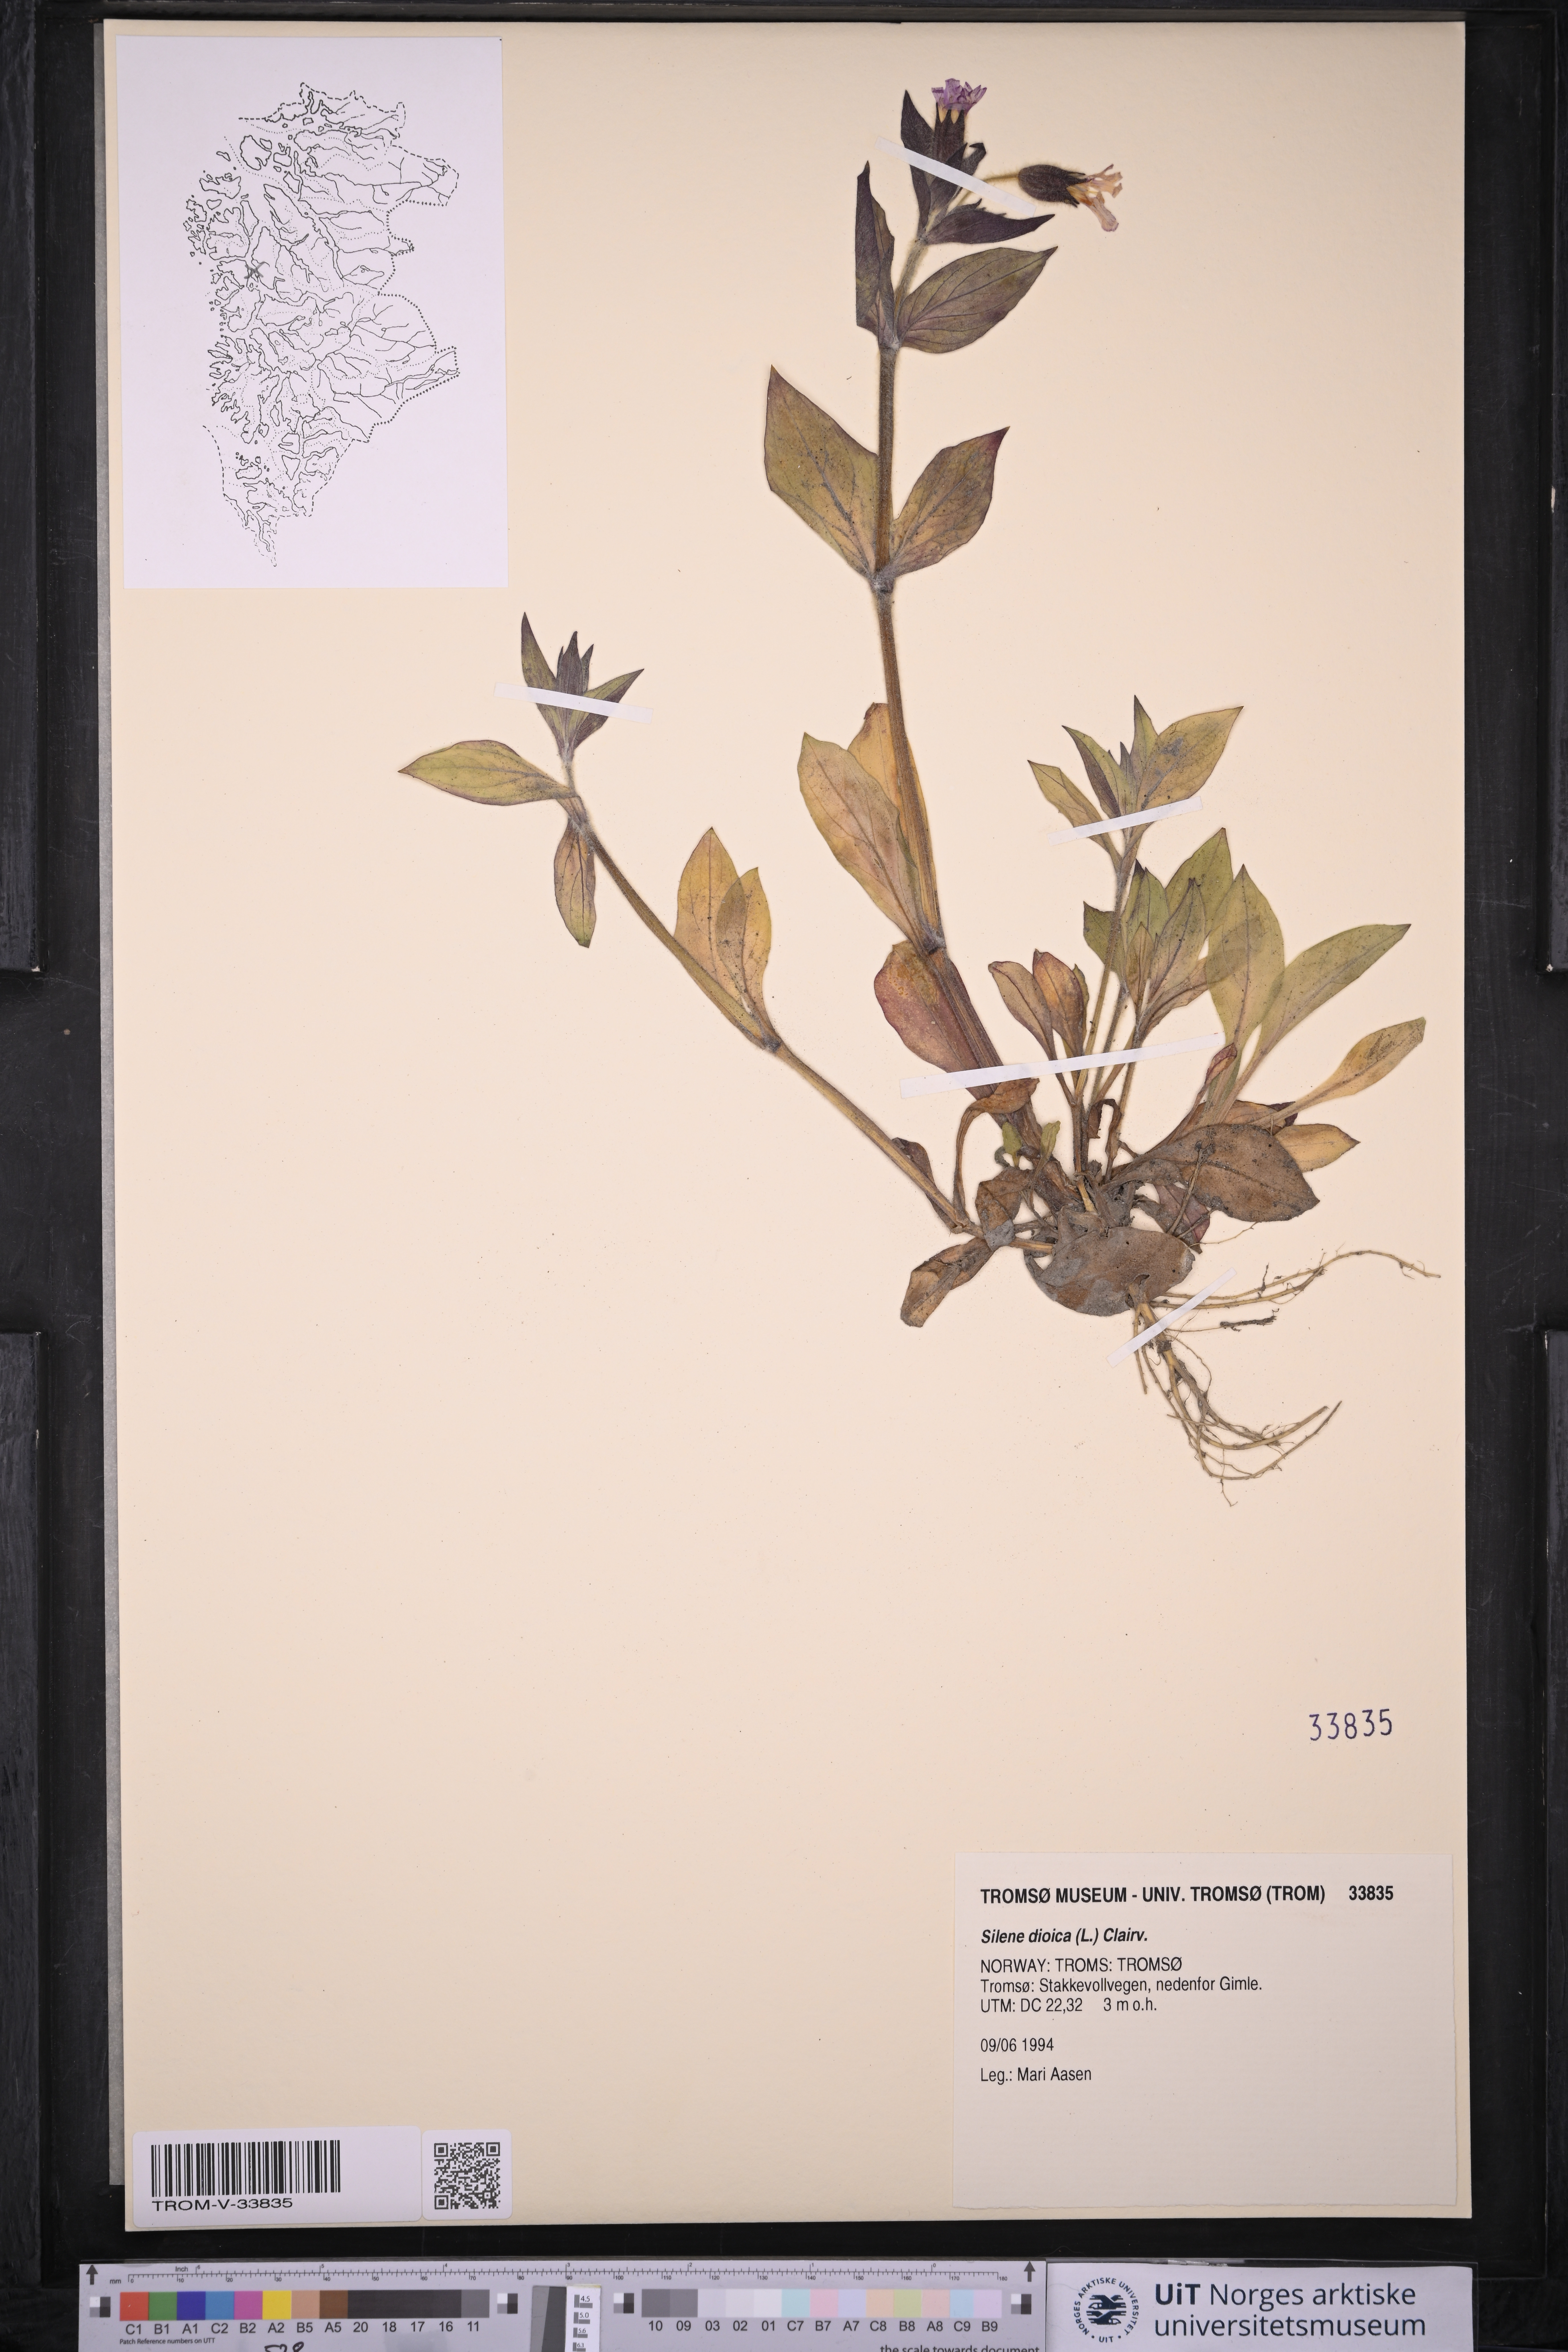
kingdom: Plantae
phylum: Tracheophyta
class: Magnoliopsida
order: Caryophyllales
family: Caryophyllaceae
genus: Silene
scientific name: Silene dioica
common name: Red campion
